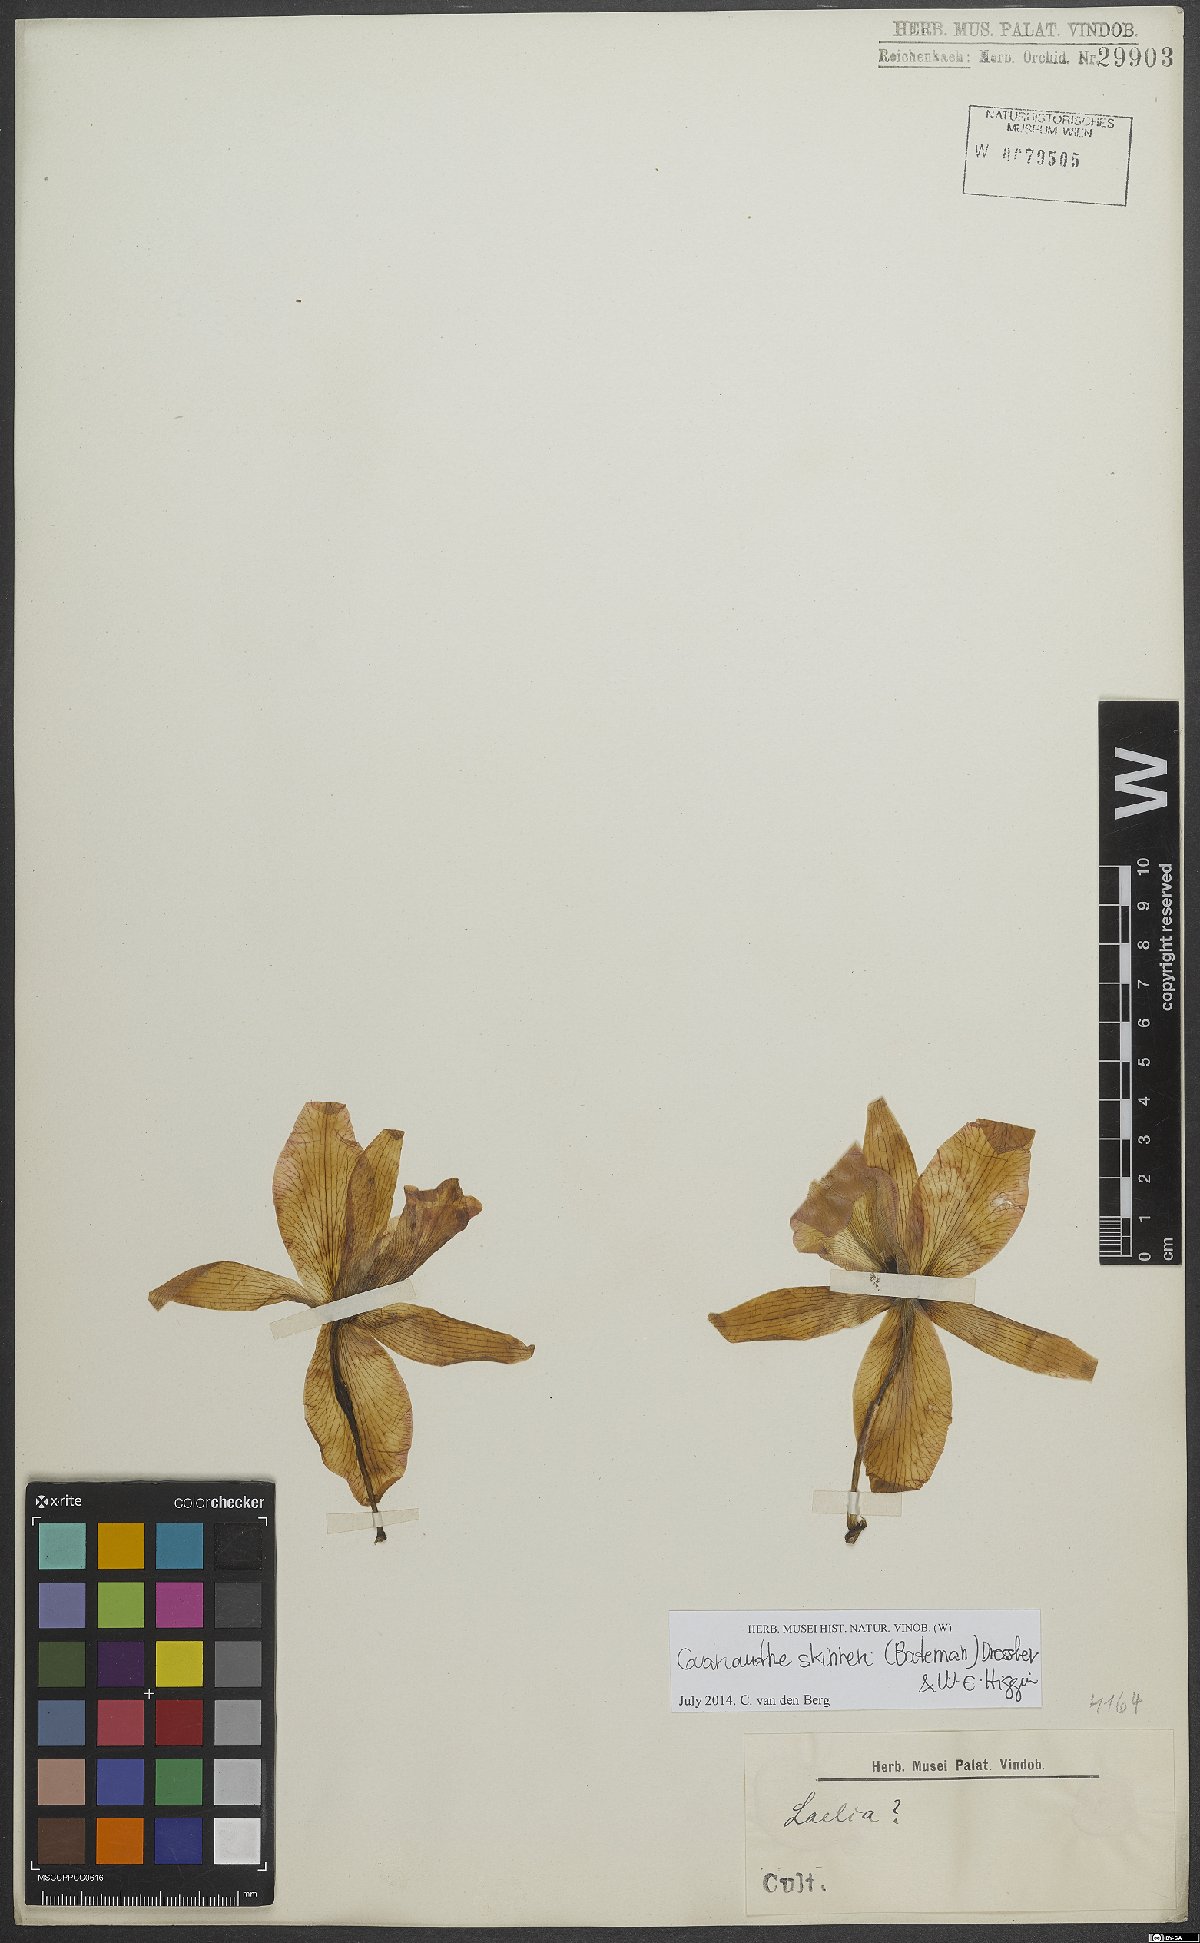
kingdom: Plantae
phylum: Tracheophyta
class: Liliopsida
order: Asparagales
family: Orchidaceae
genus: Guarianthe
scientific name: Guarianthe skinneri
